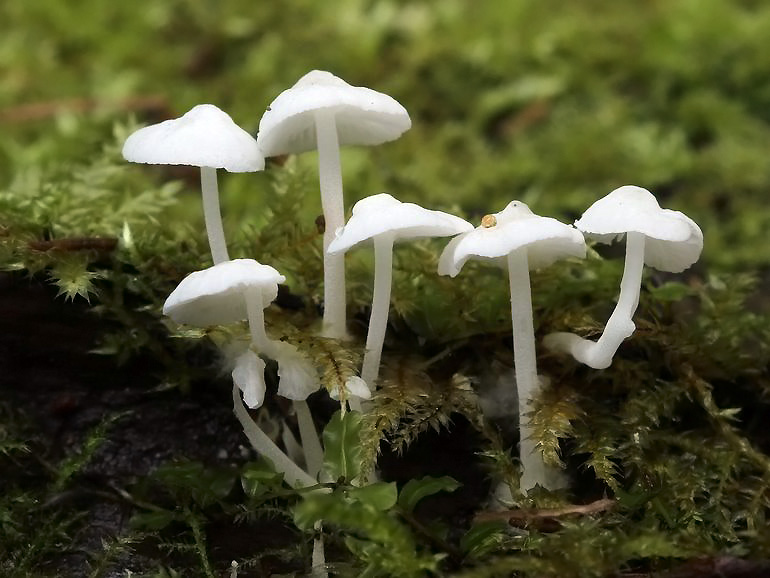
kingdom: Fungi
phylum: Basidiomycota
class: Agaricomycetes
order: Agaricales
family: Mycenaceae
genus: Hemimycena
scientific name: Hemimycena lactea
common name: mælkehvid huesvamp
